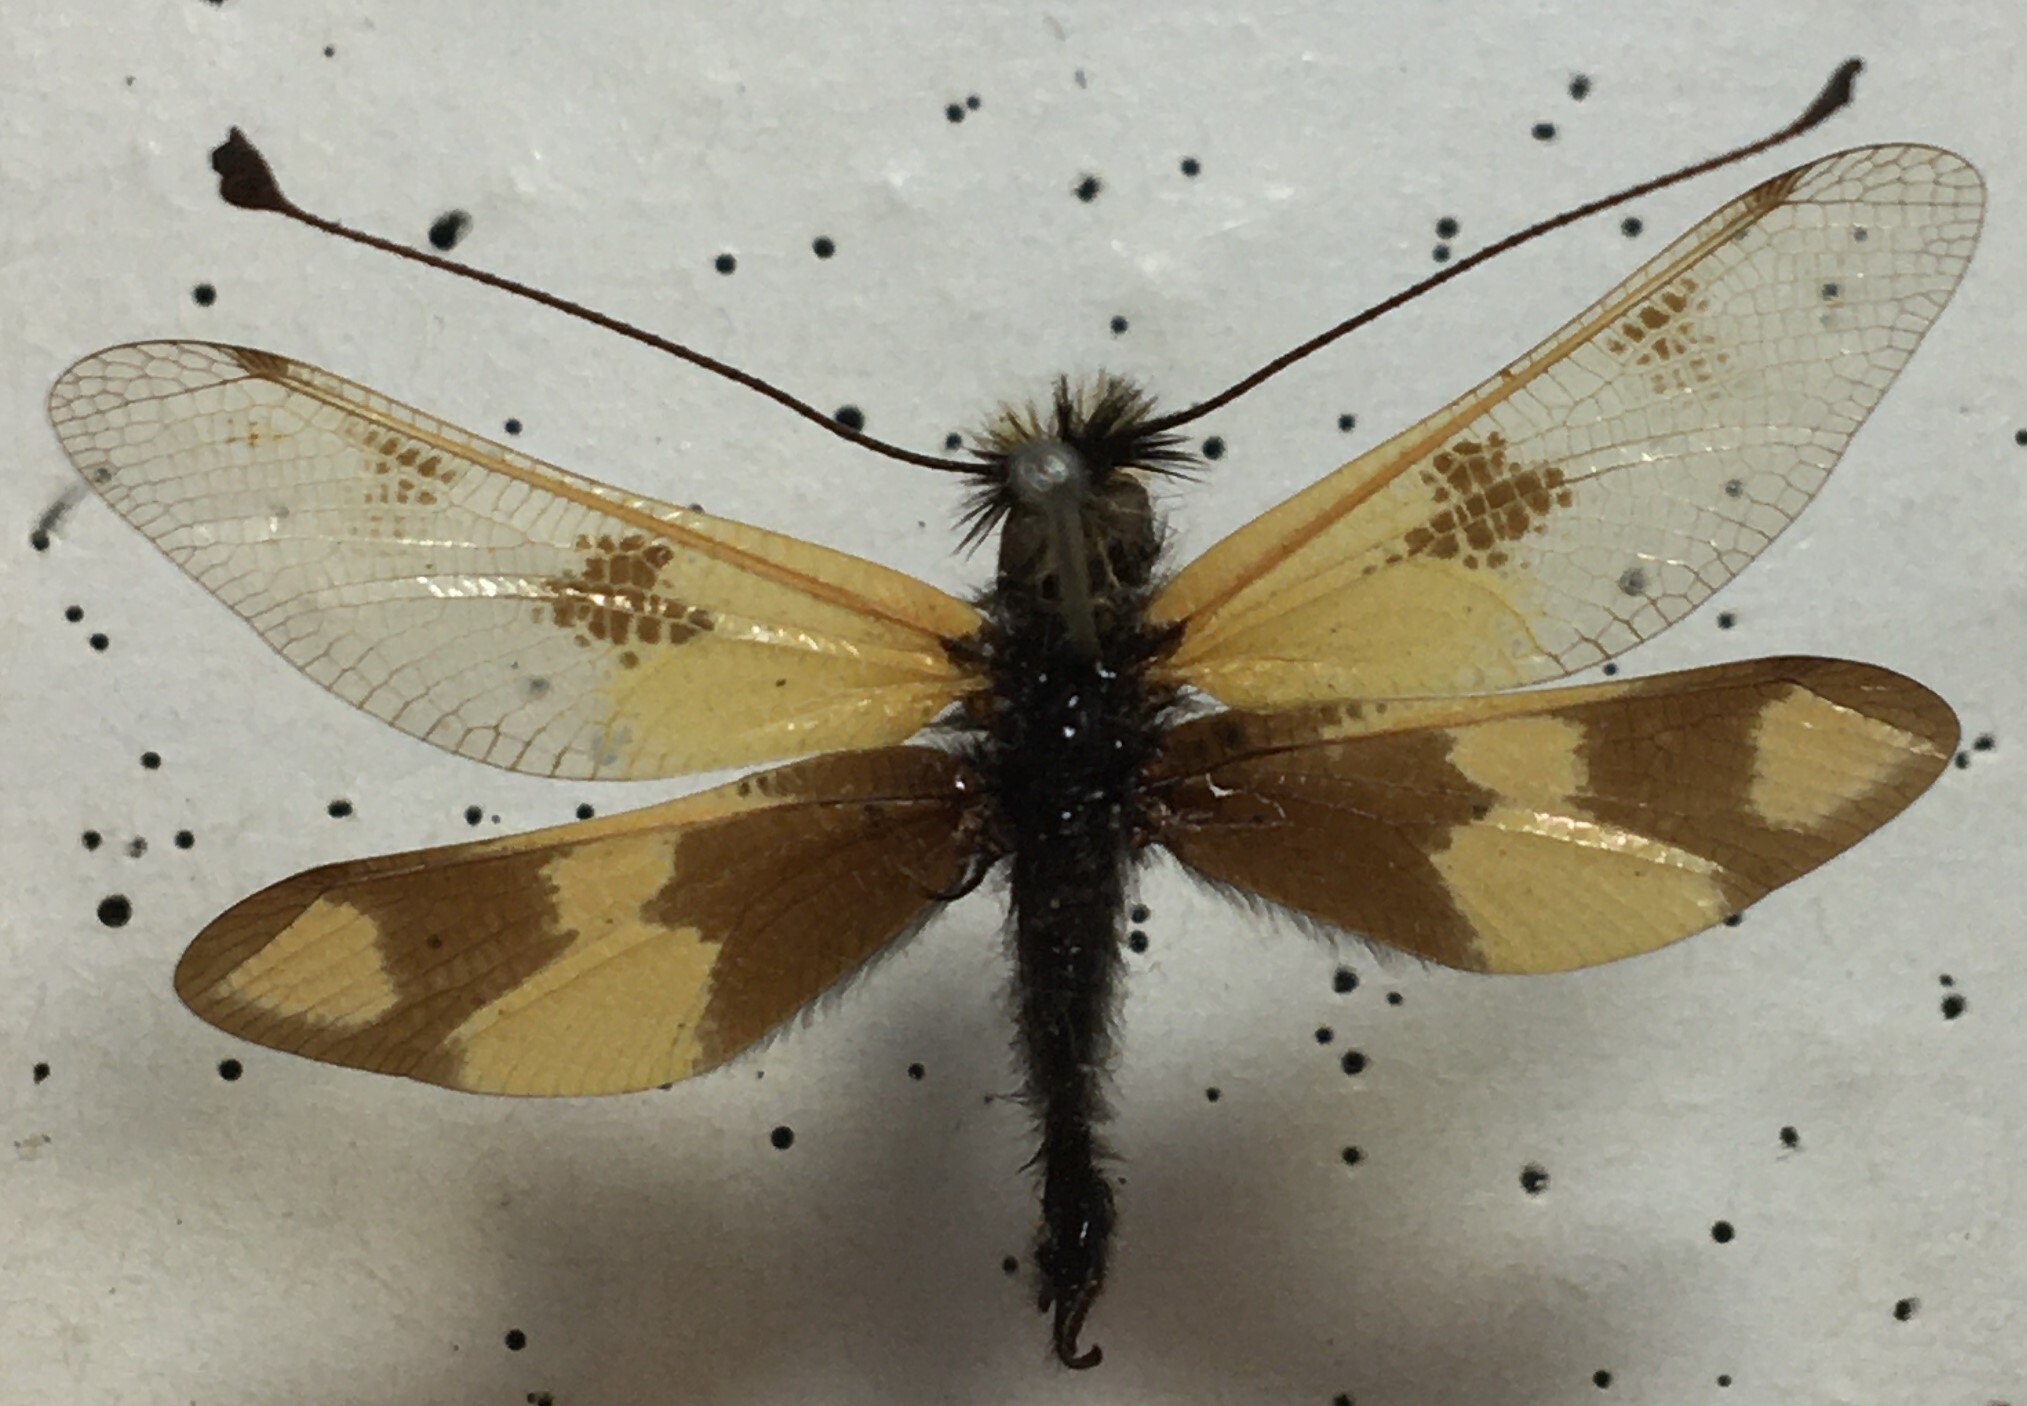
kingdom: Animalia
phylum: Arthropoda
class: Insecta
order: Neuroptera
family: Ascalaphidae
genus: Libelloides
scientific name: Libelloides macaronius
